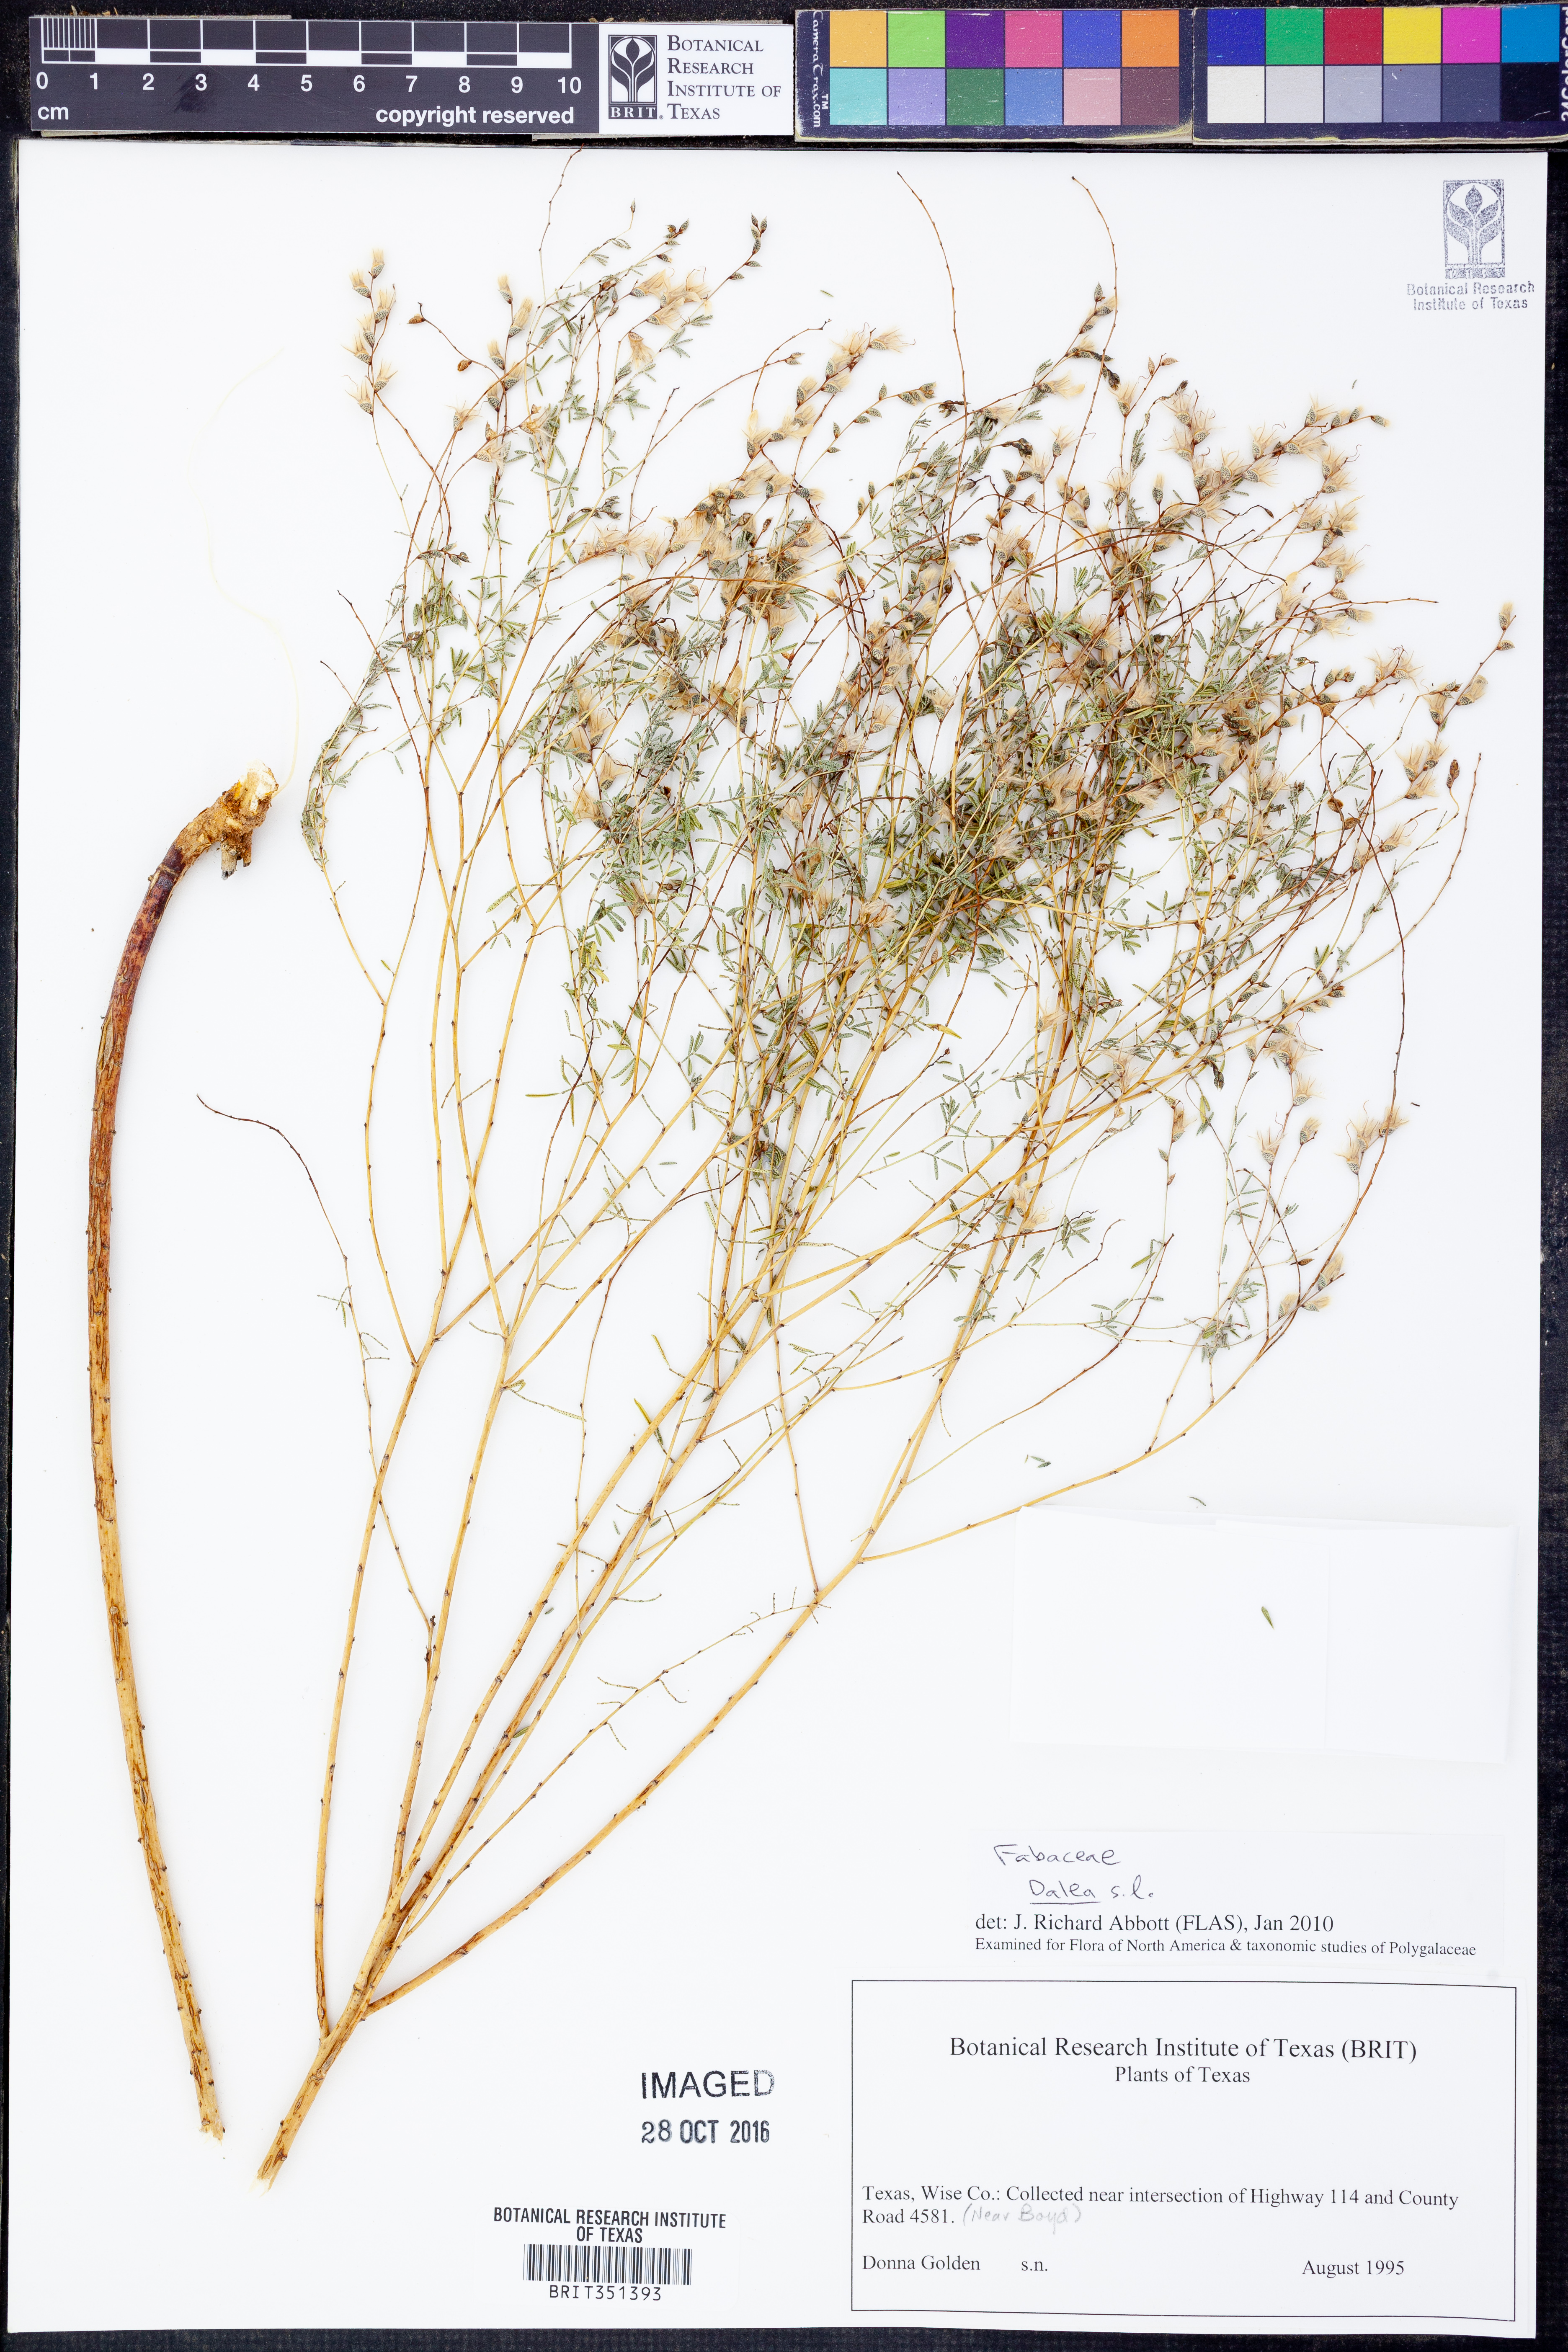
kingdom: Plantae
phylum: Tracheophyta
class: Magnoliopsida
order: Fabales
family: Fabaceae
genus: Dalea
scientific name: Dalea
